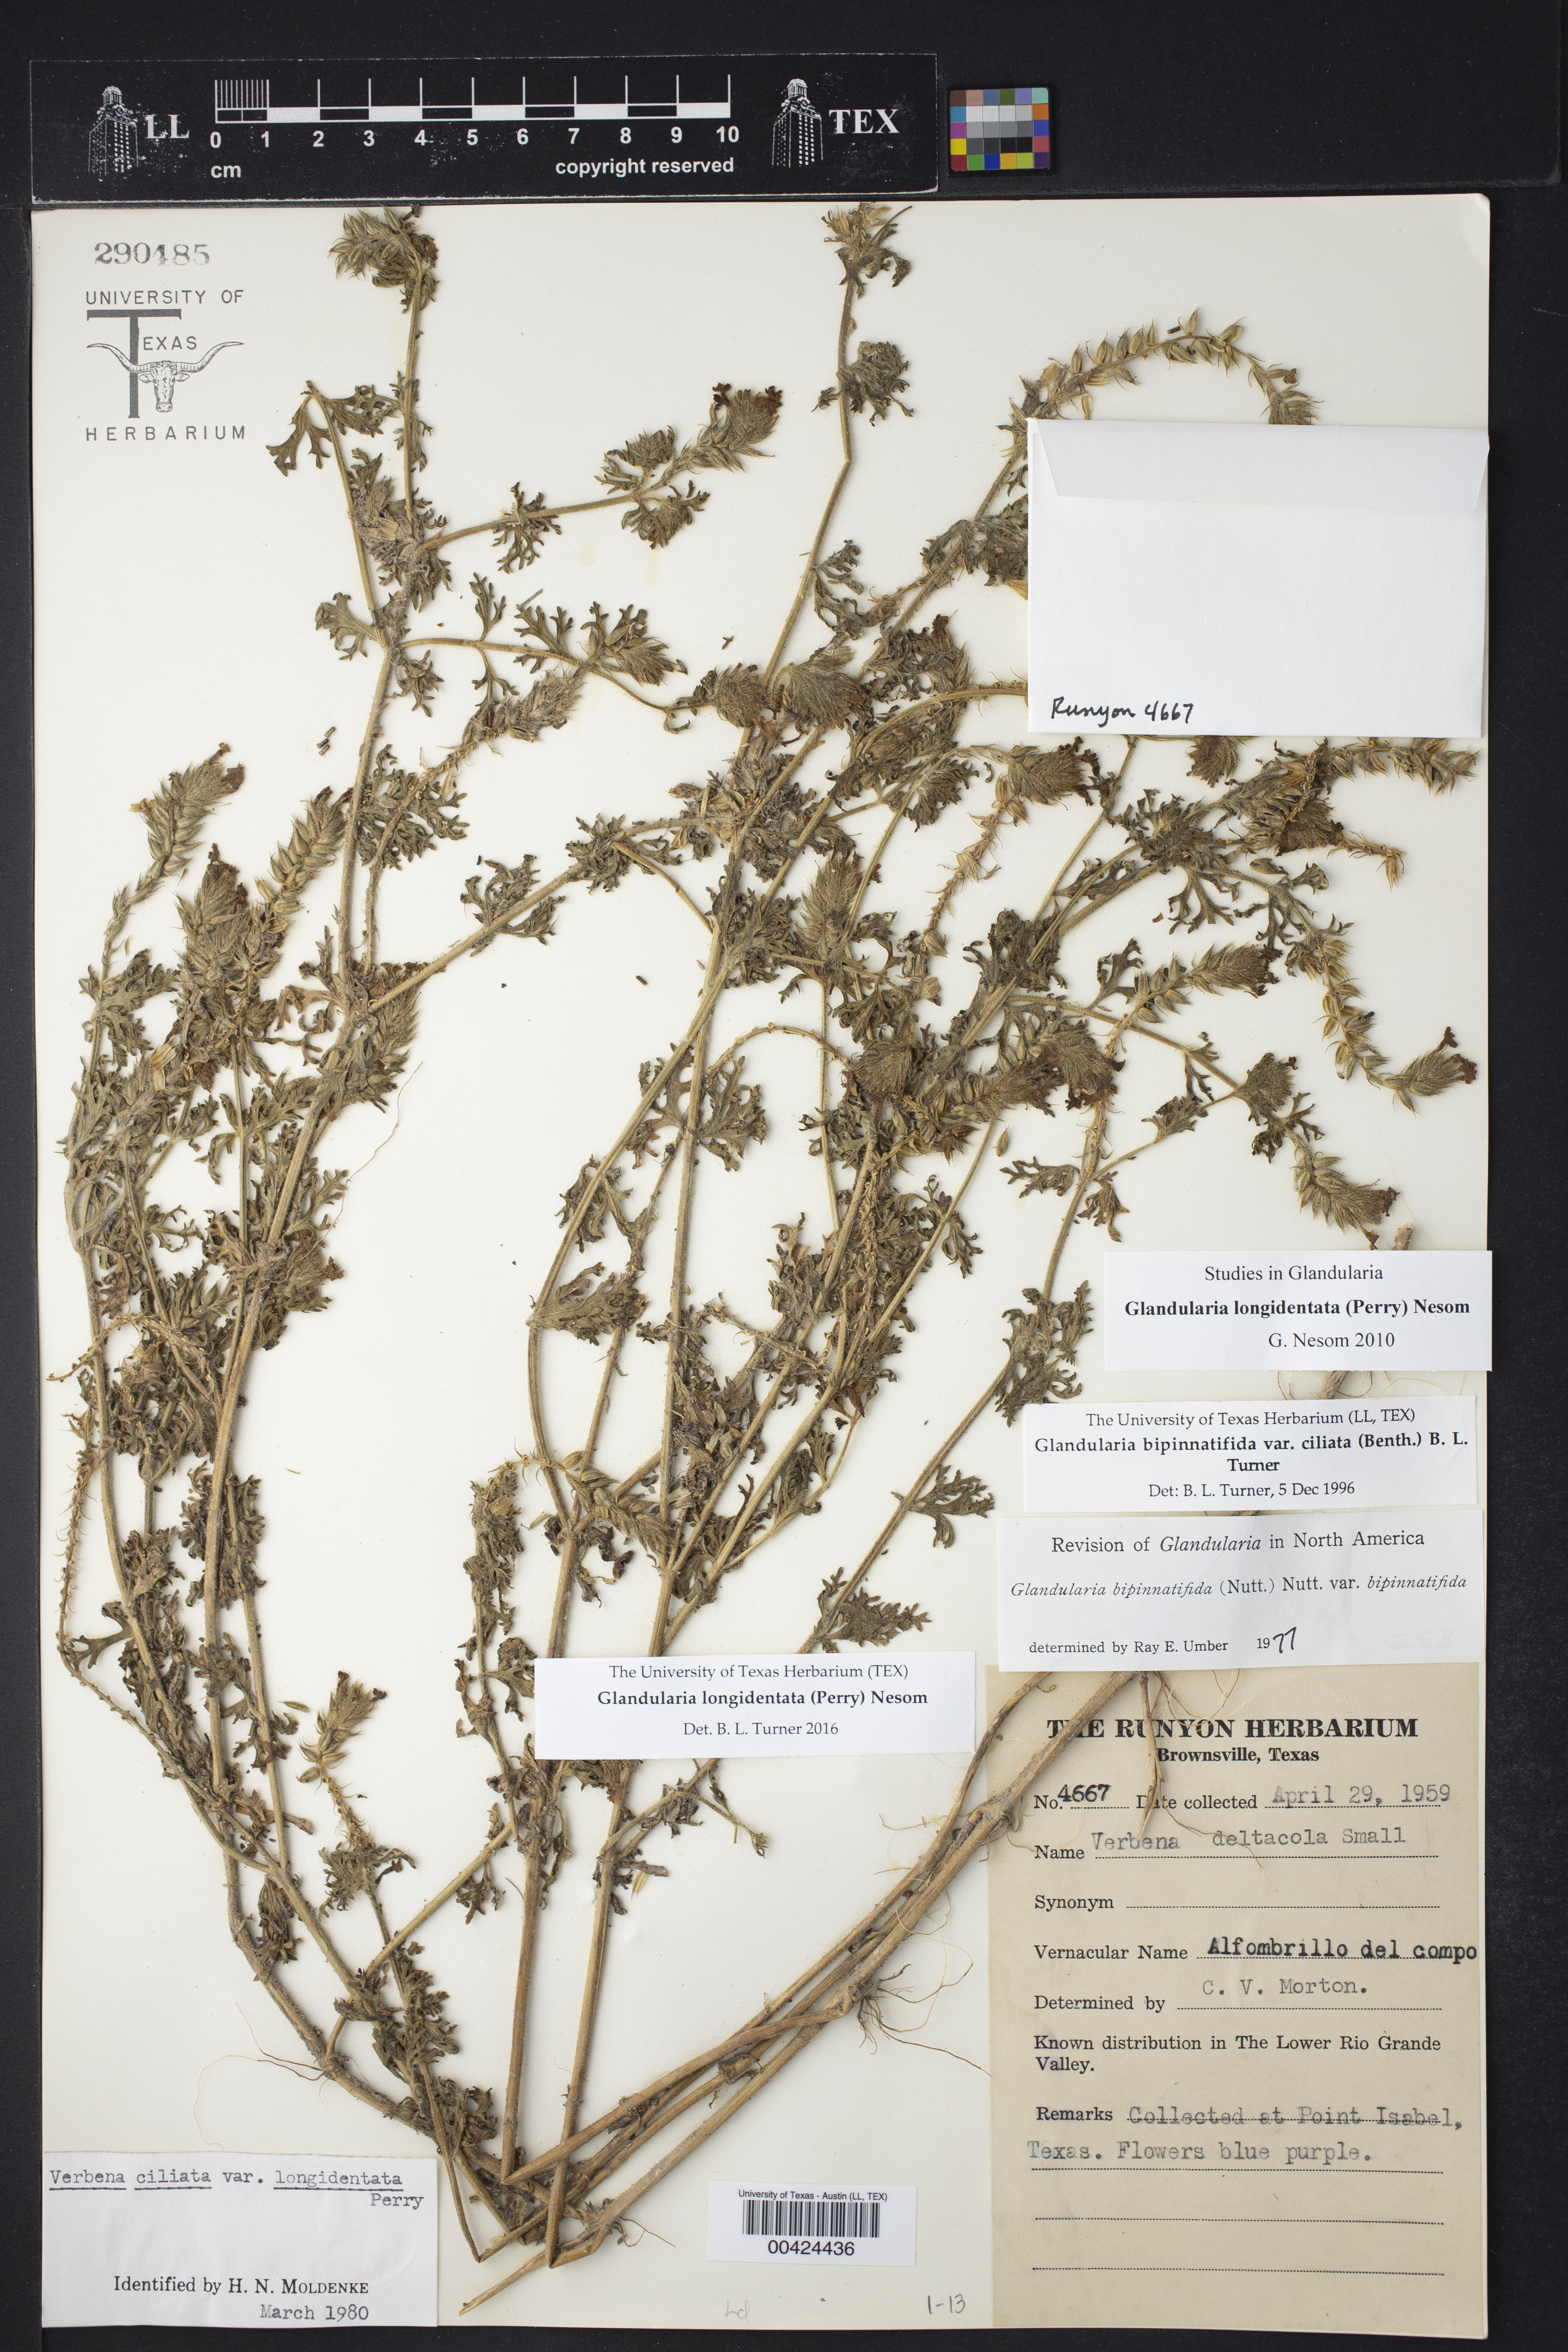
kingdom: Plantae
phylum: Tracheophyta
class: Magnoliopsida
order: Lamiales
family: Verbenaceae
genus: Verbena
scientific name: Verbena polyantha
